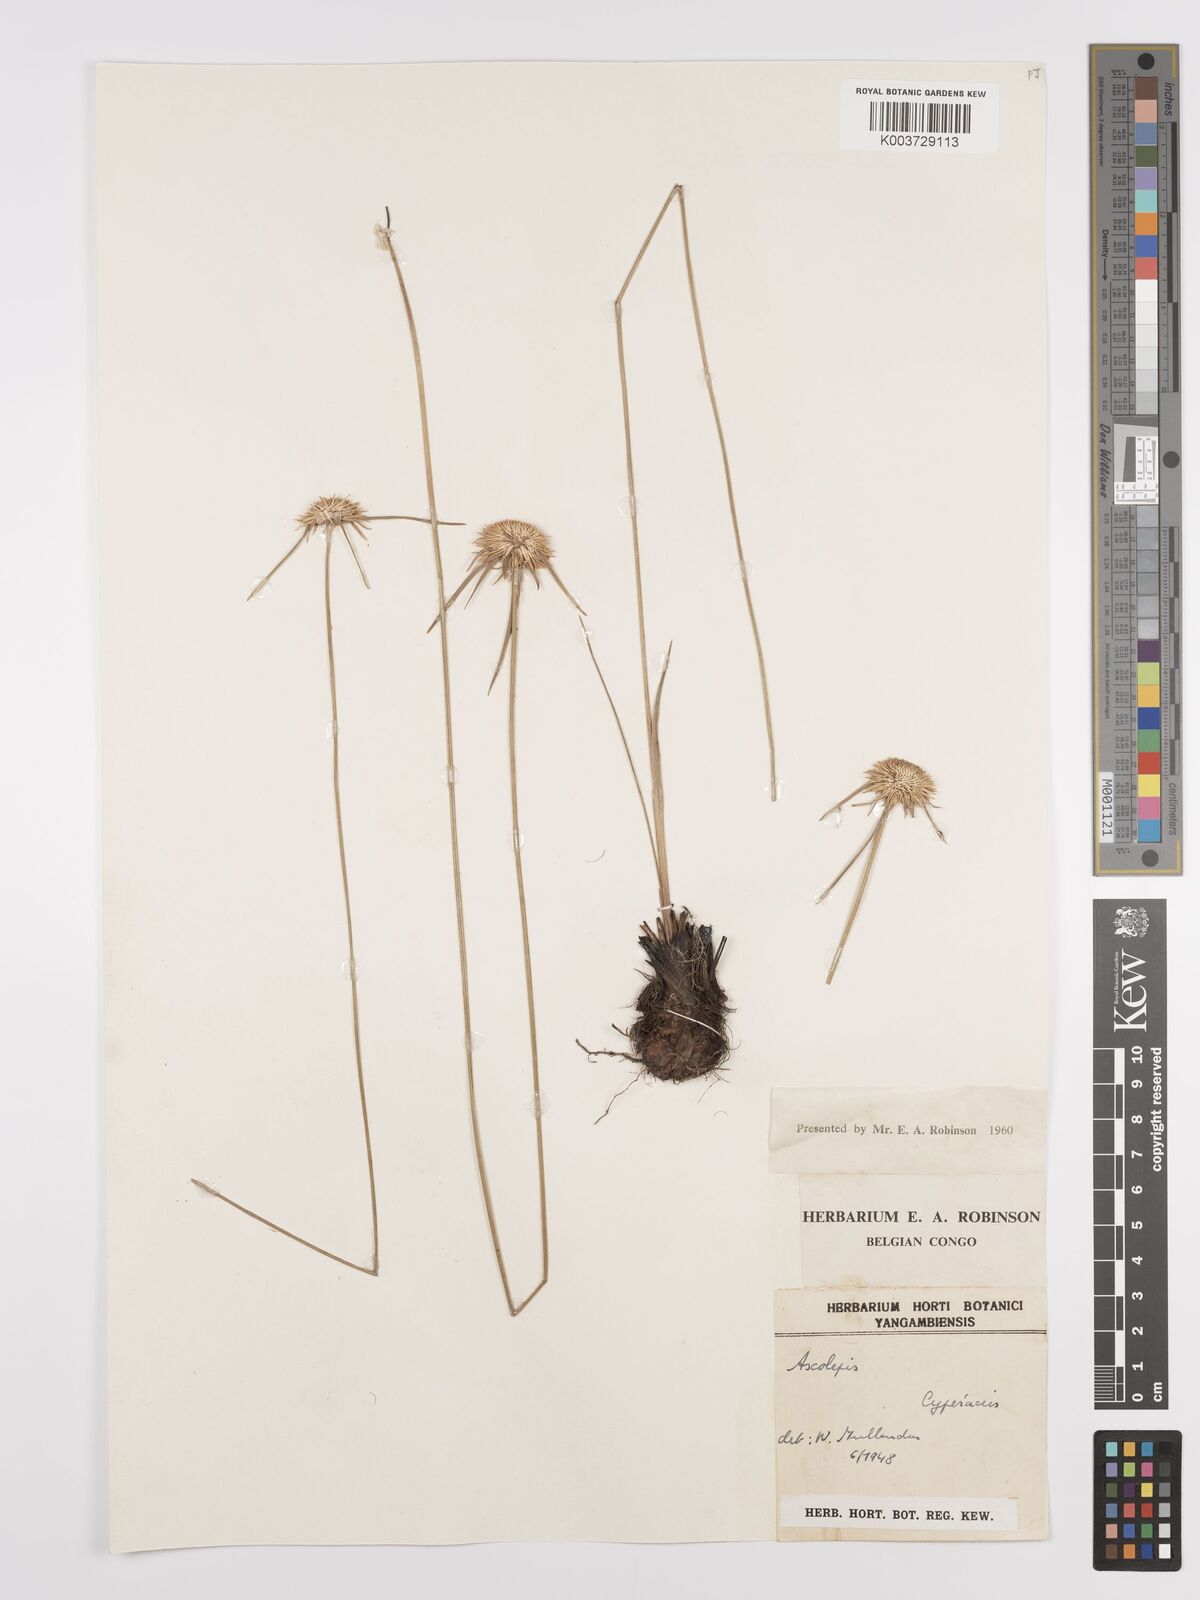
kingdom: Plantae
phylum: Tracheophyta
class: Liliopsida
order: Poales
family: Cyperaceae
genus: Cyperus
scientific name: Cyperus
